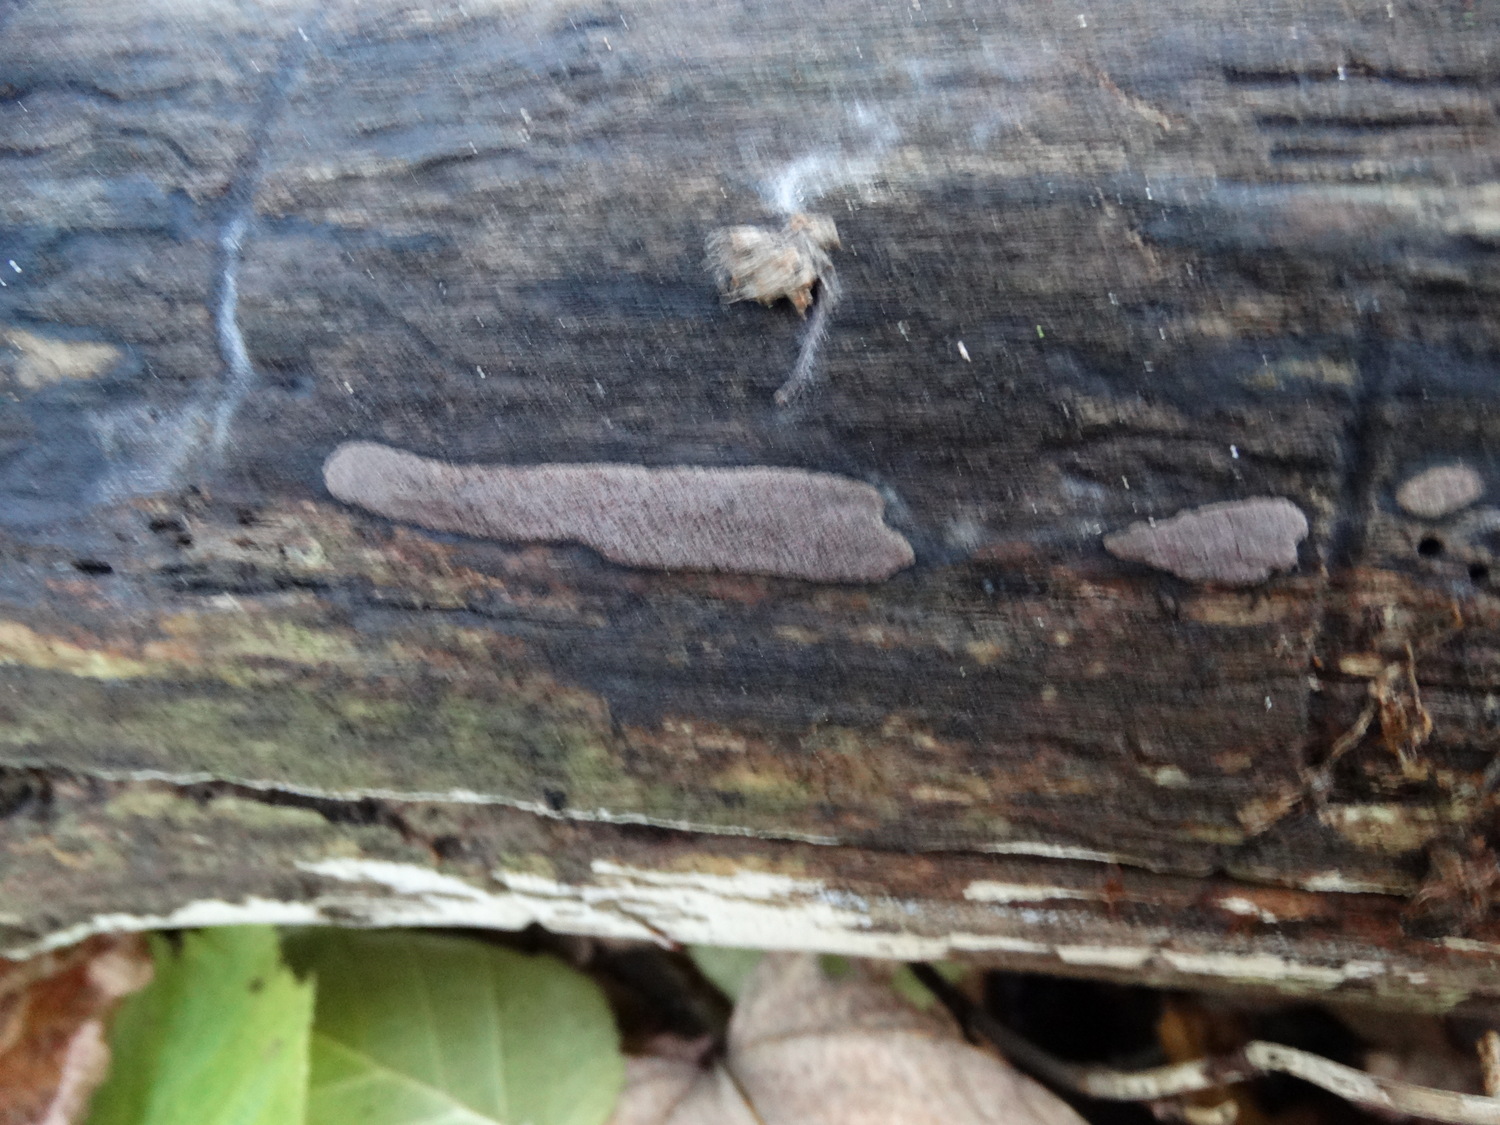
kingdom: Fungi
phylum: Ascomycota
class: Sordariomycetes
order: Xylariales
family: Hypoxylaceae
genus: Hypoxylon
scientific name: Hypoxylon petriniae
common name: nedsænket kulbær
